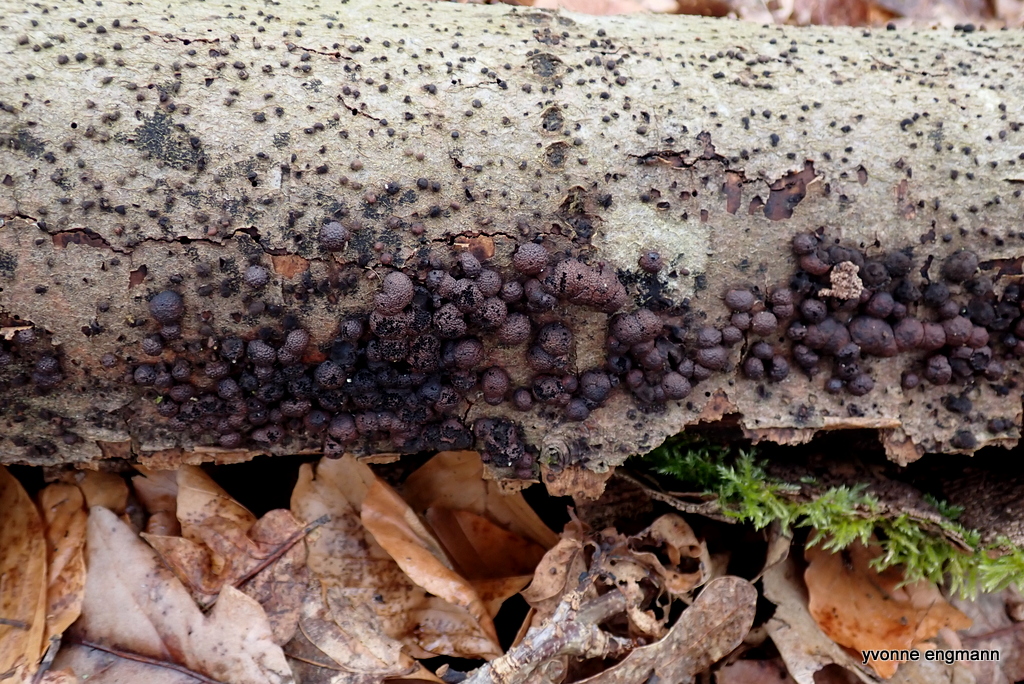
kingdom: Fungi
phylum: Ascomycota
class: Sordariomycetes
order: Xylariales
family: Hypoxylaceae
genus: Hypoxylon
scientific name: Hypoxylon fragiforme
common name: kuljordbær
